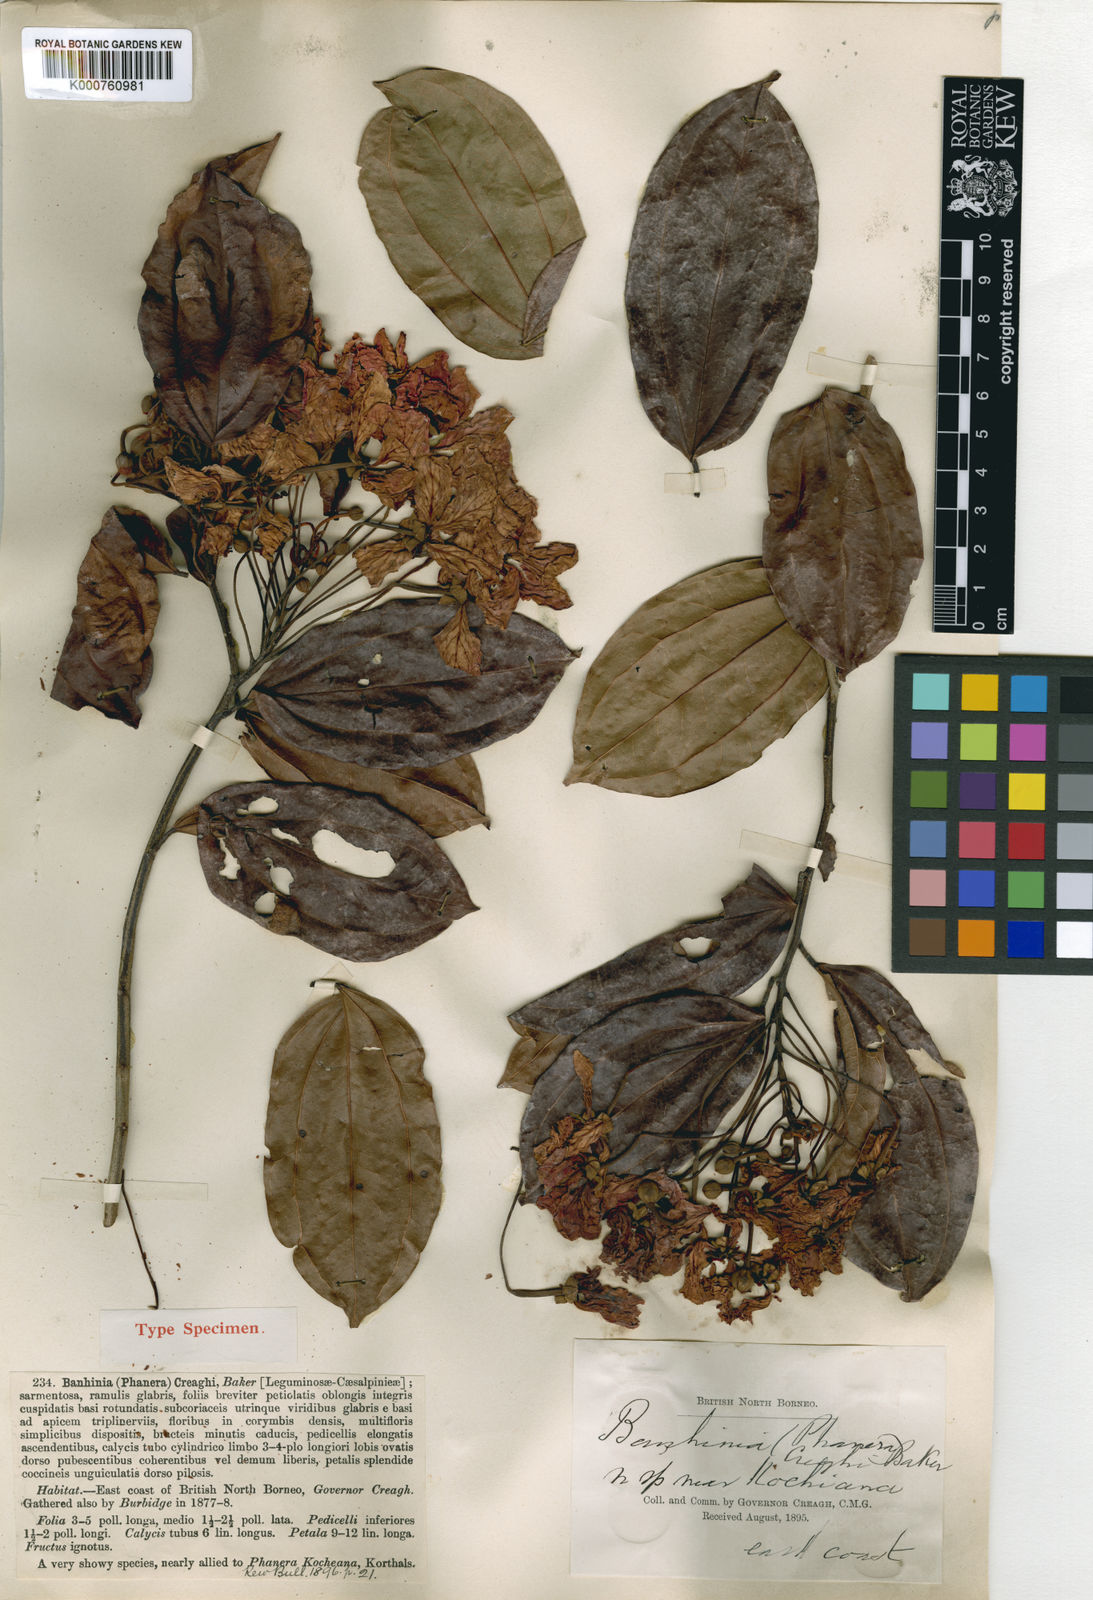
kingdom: Plantae
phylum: Tracheophyta
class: Magnoliopsida
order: Fabales
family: Fabaceae
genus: Phanera
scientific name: Phanera kockiana
